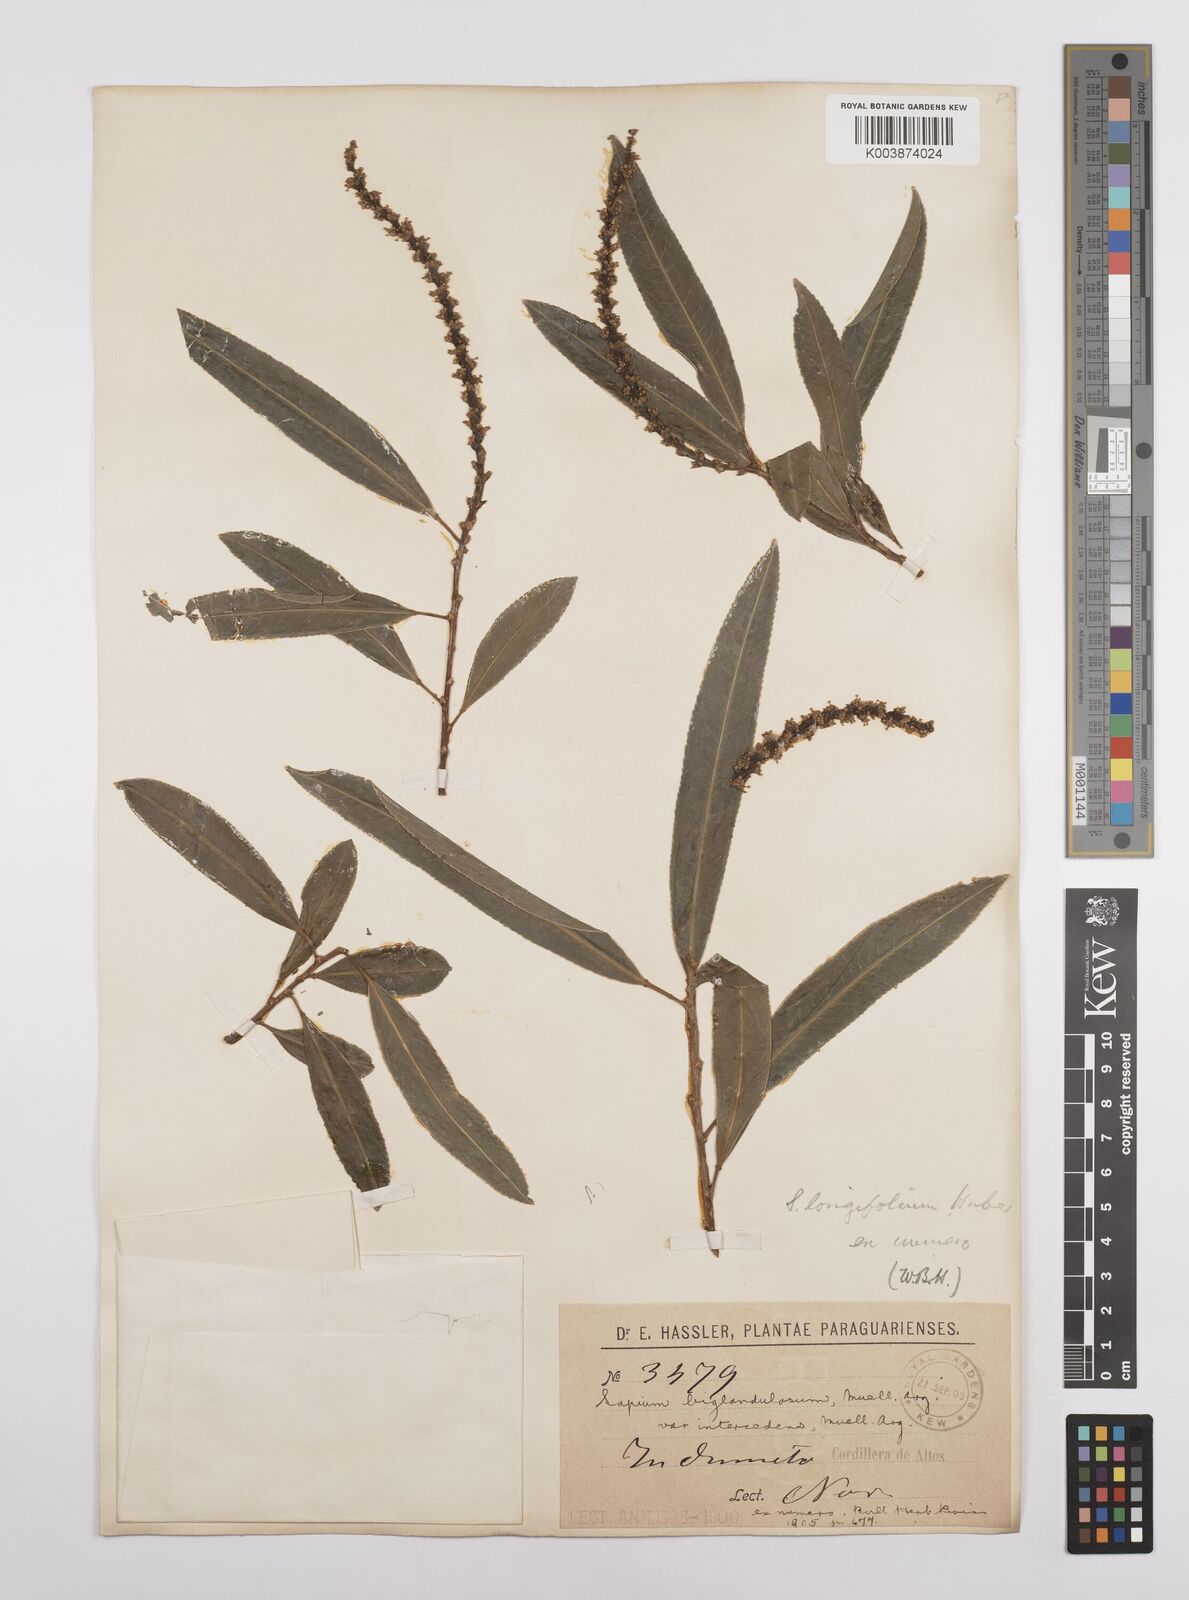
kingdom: Plantae
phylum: Tracheophyta
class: Magnoliopsida
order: Malpighiales
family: Euphorbiaceae
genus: Sapium
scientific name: Sapium haematospermum
